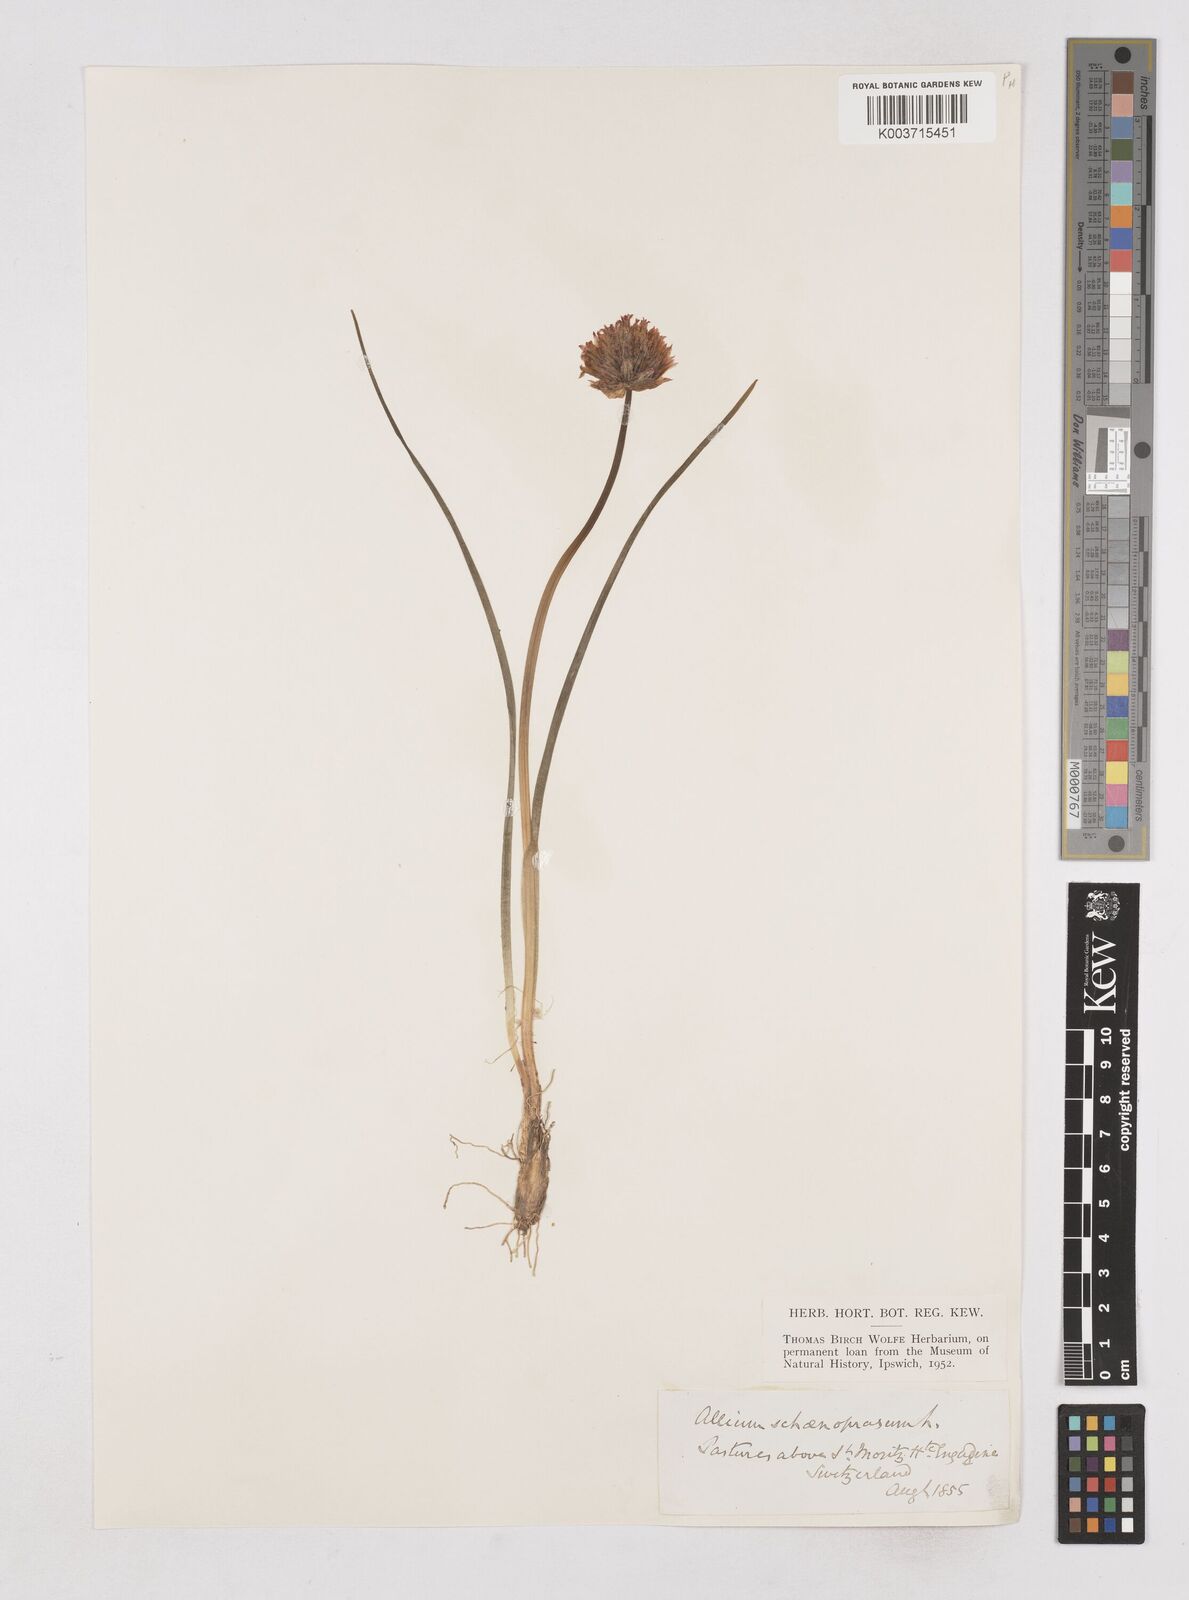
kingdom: Plantae
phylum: Tracheophyta
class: Liliopsida
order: Asparagales
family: Amaryllidaceae
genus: Allium
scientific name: Allium schoenoprasum
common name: Chives
